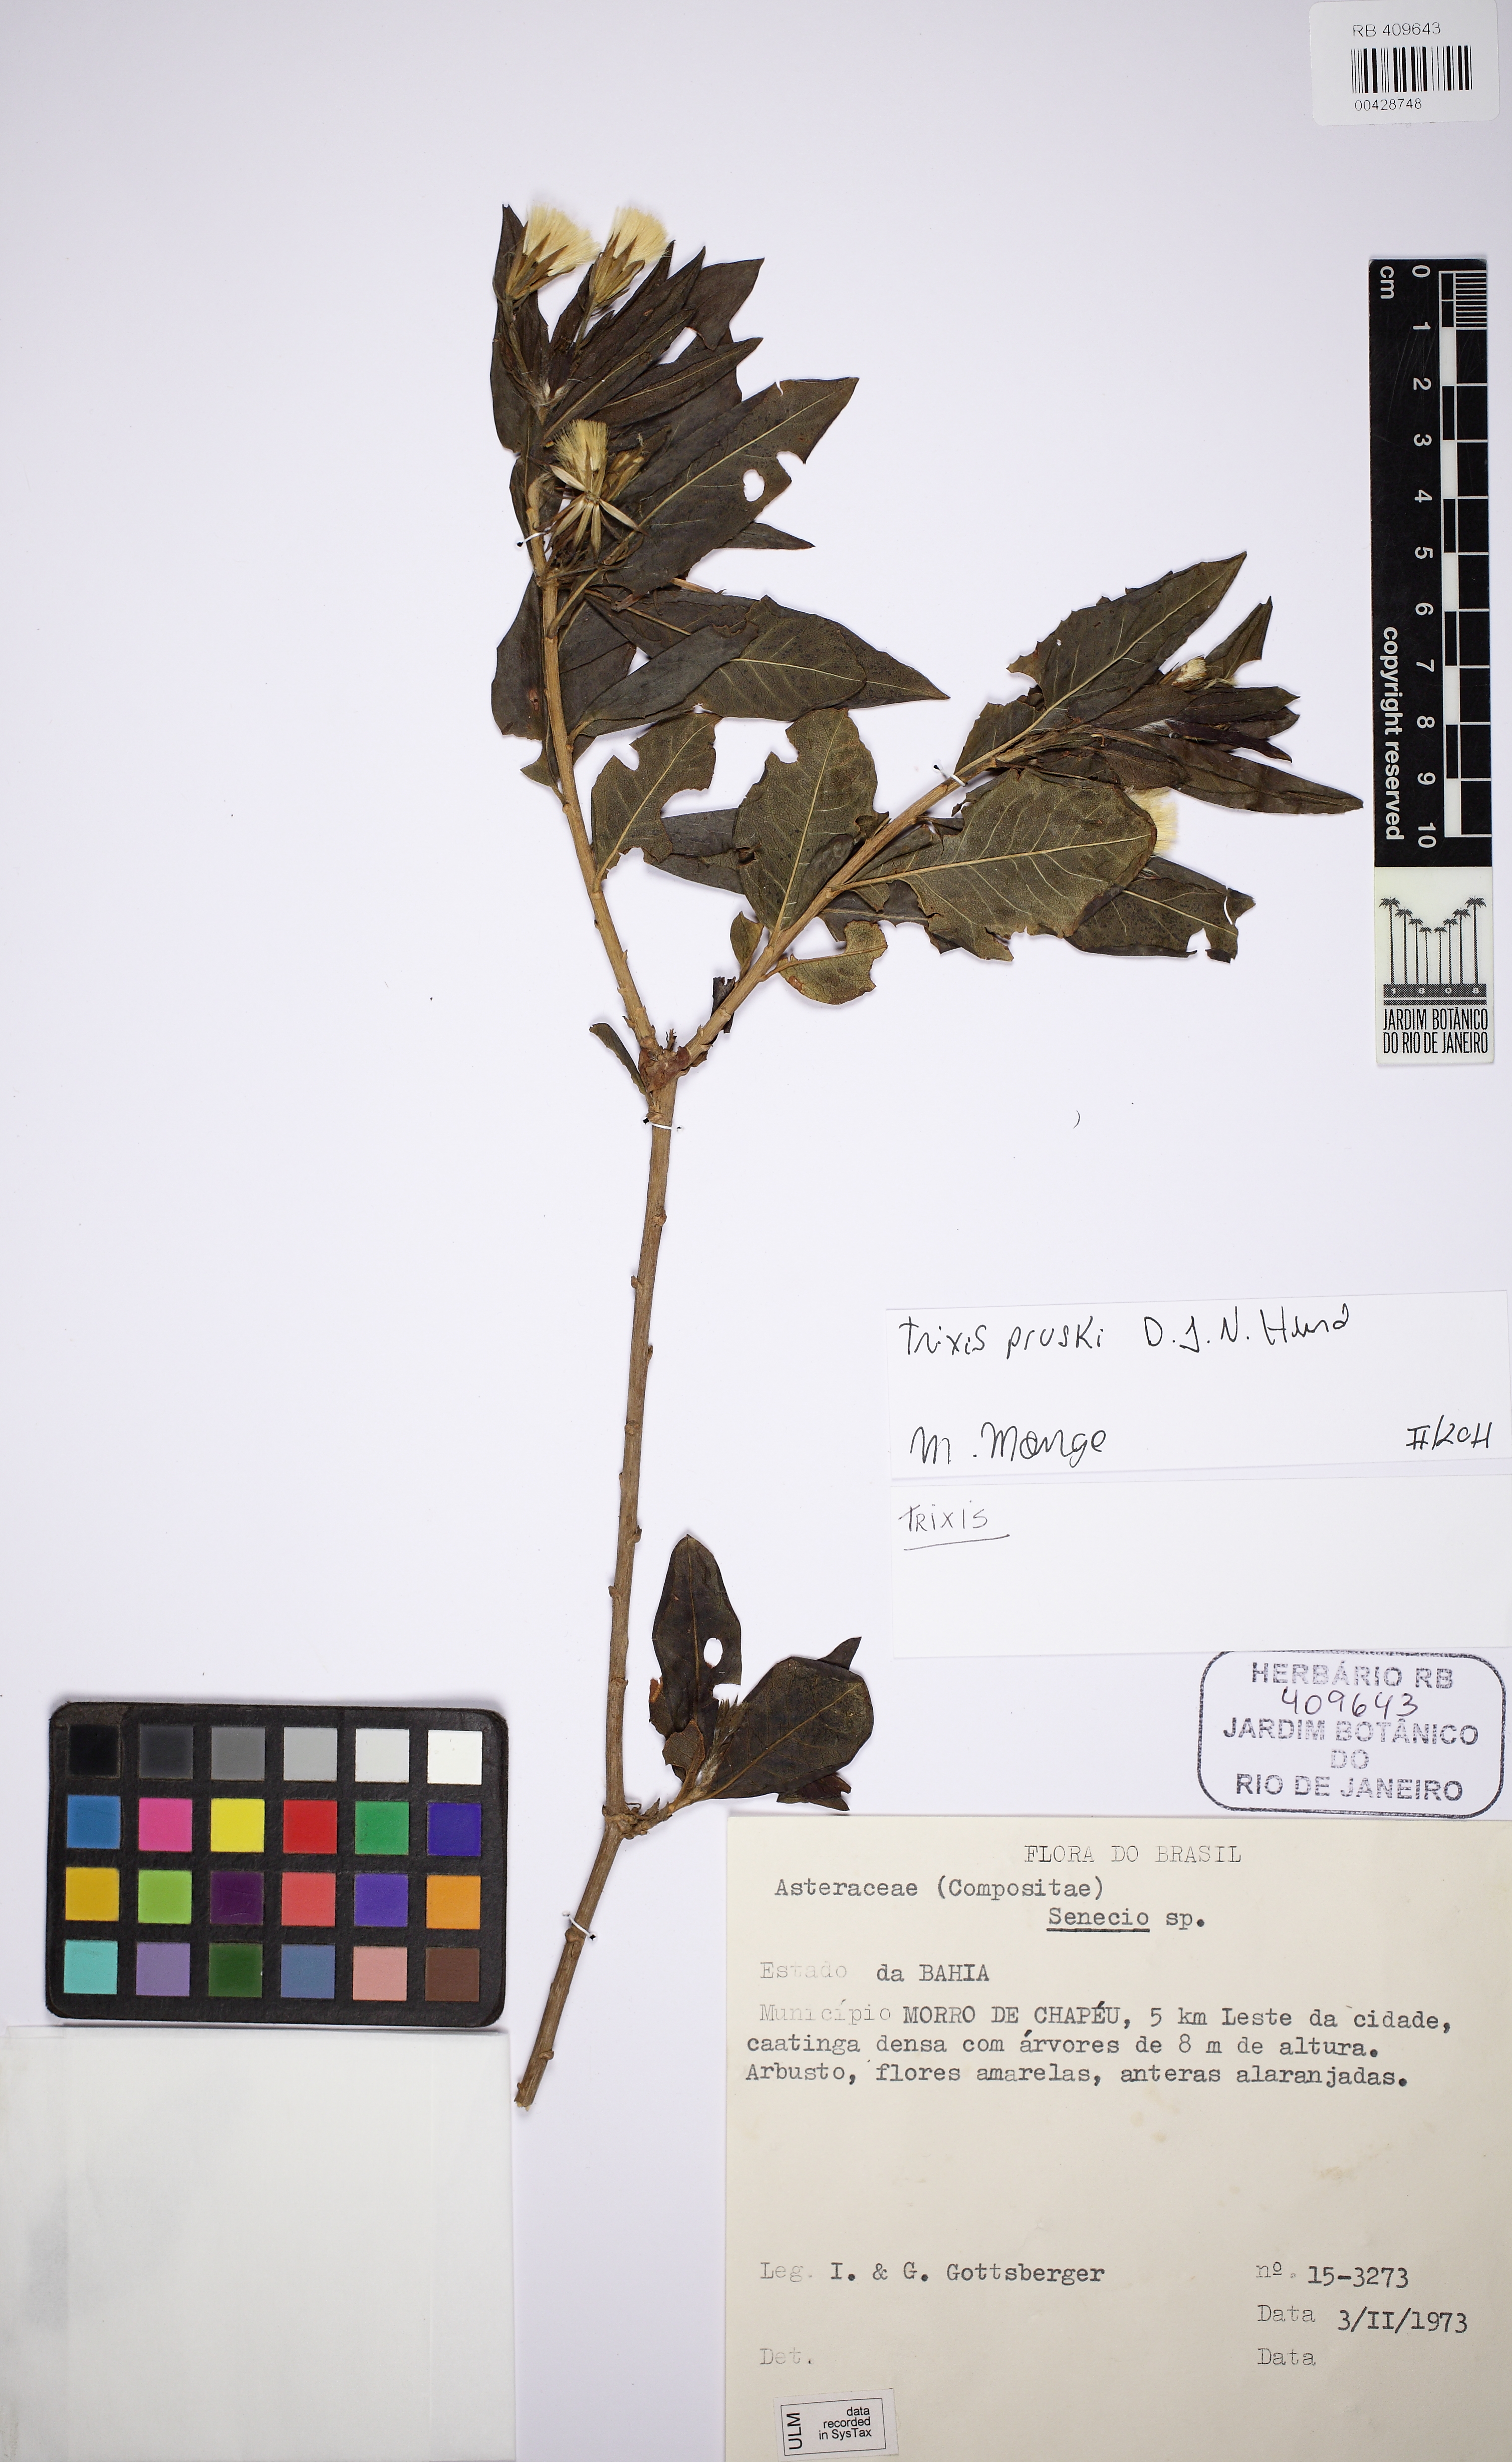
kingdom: Plantae
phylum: Tracheophyta
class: Magnoliopsida
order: Asterales
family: Asteraceae
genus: Trixis
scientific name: Trixis pruskii
